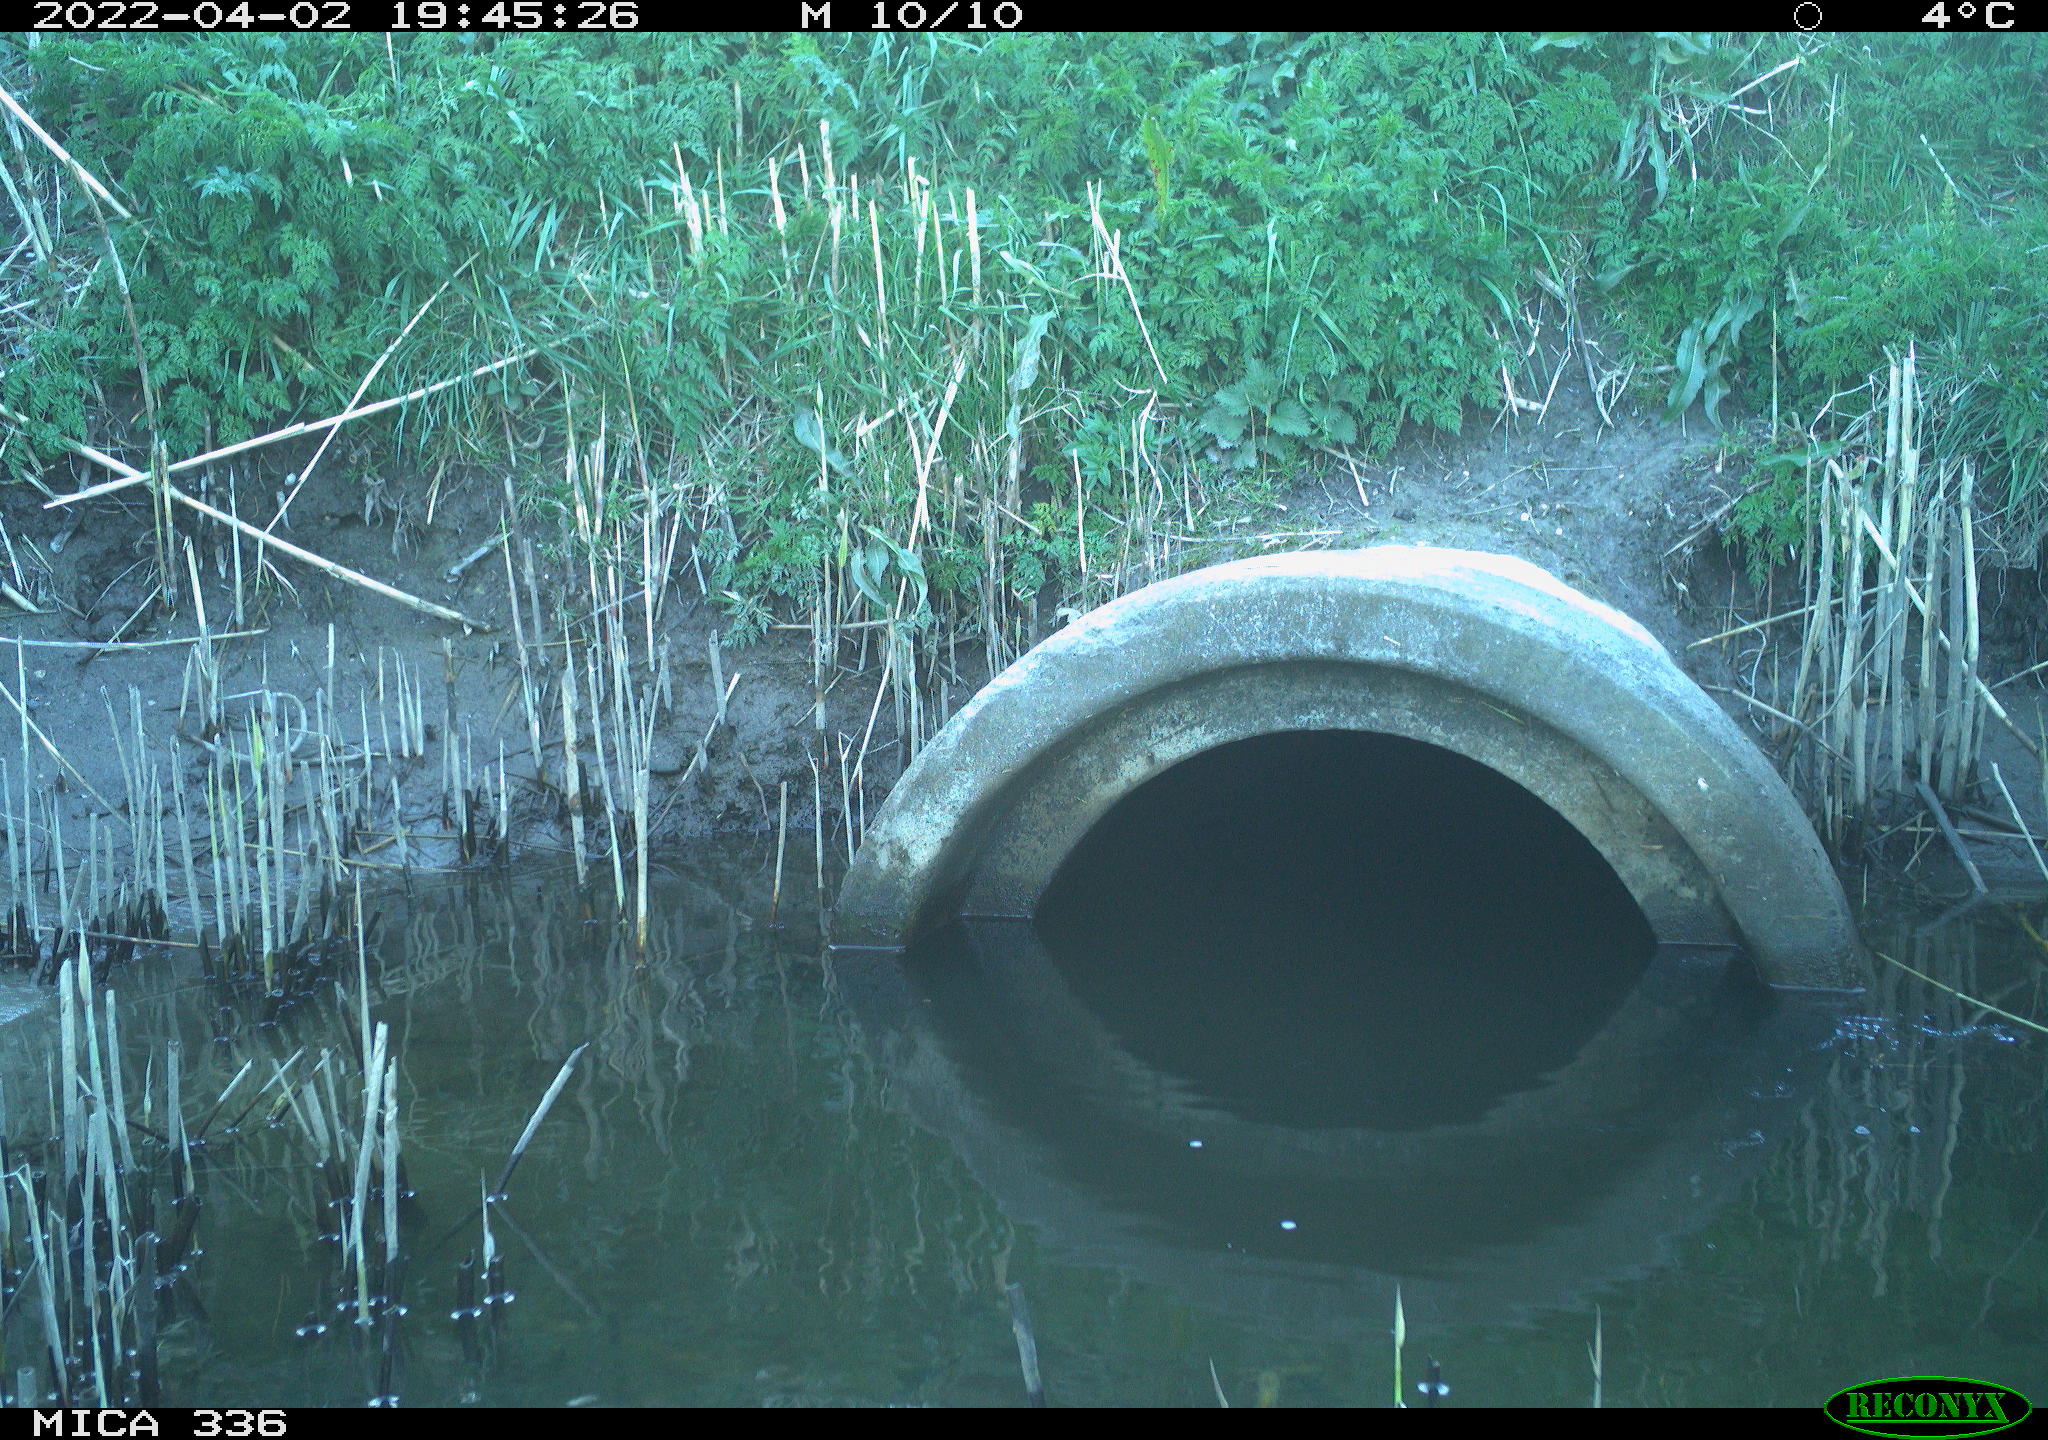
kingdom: Animalia
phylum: Chordata
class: Aves
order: Pelecaniformes
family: Ardeidae
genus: Ardea
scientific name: Ardea cinerea
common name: Grey heron
